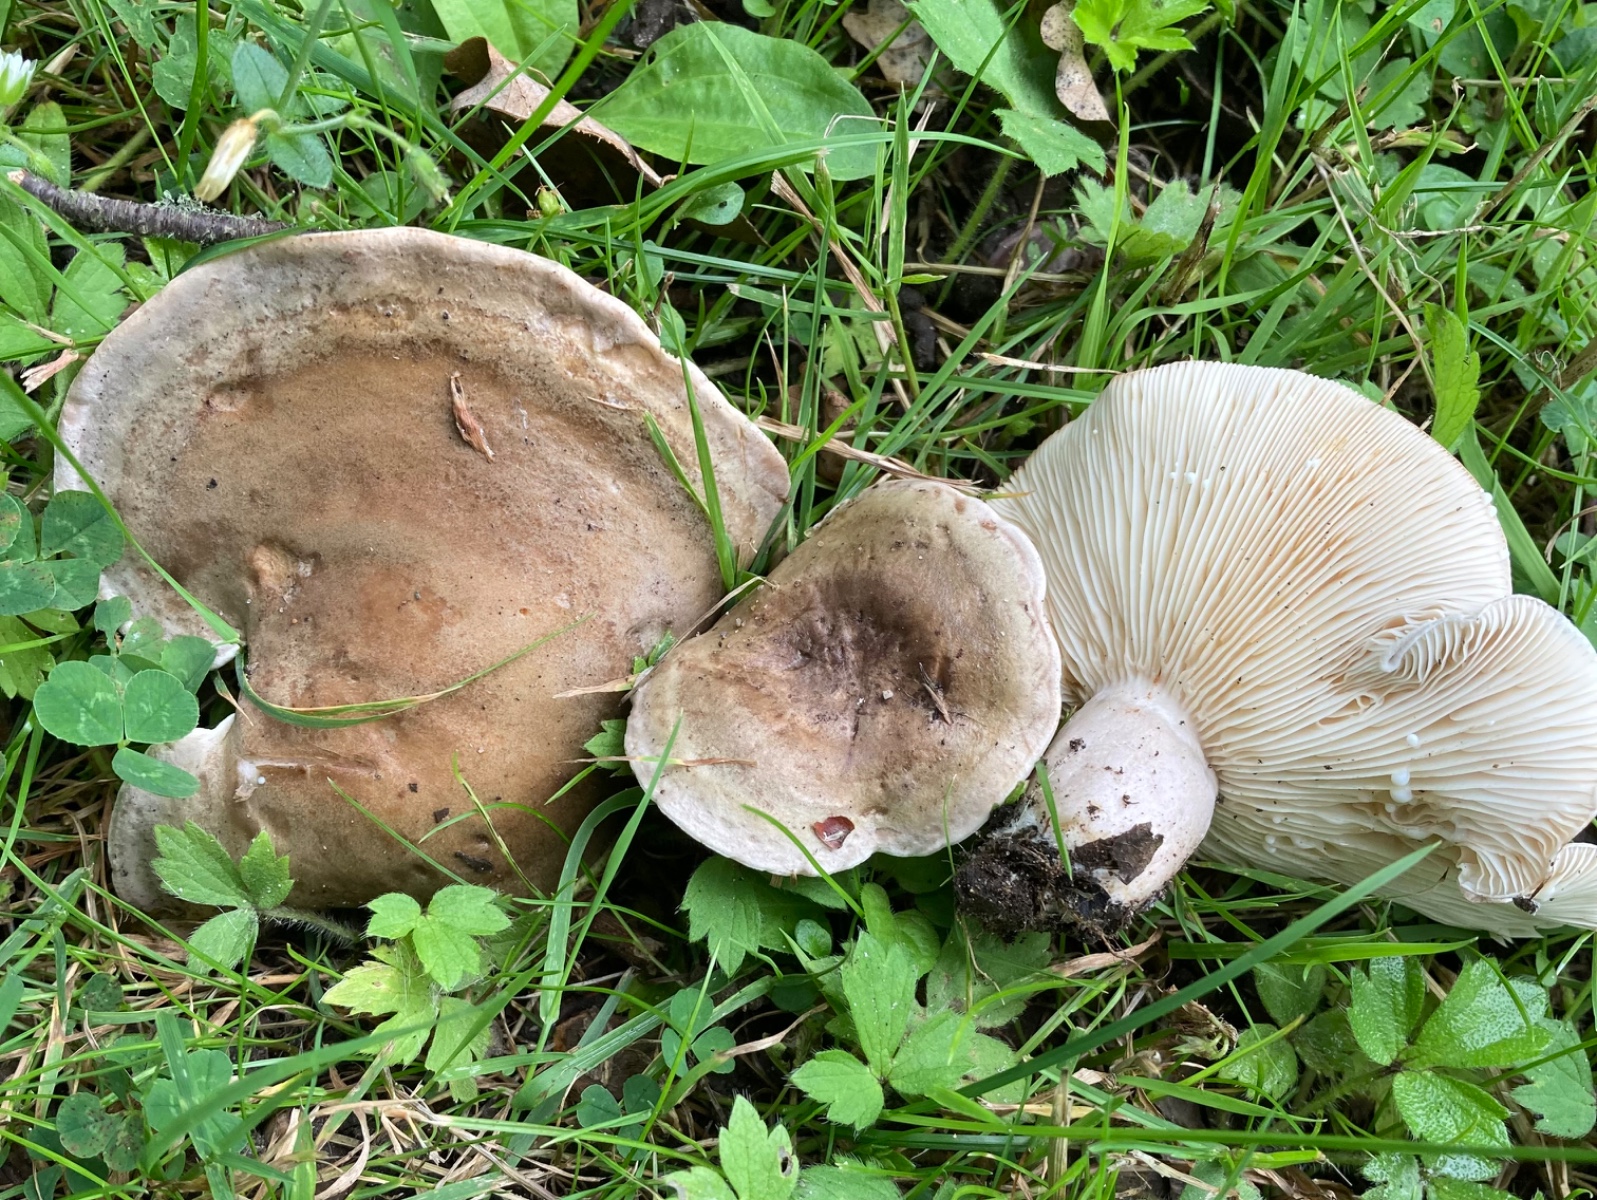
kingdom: Fungi
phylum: Basidiomycota
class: Agaricomycetes
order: Russulales
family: Russulaceae
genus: Lactarius
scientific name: Lactarius fluens
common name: lysrandet mælkehat
